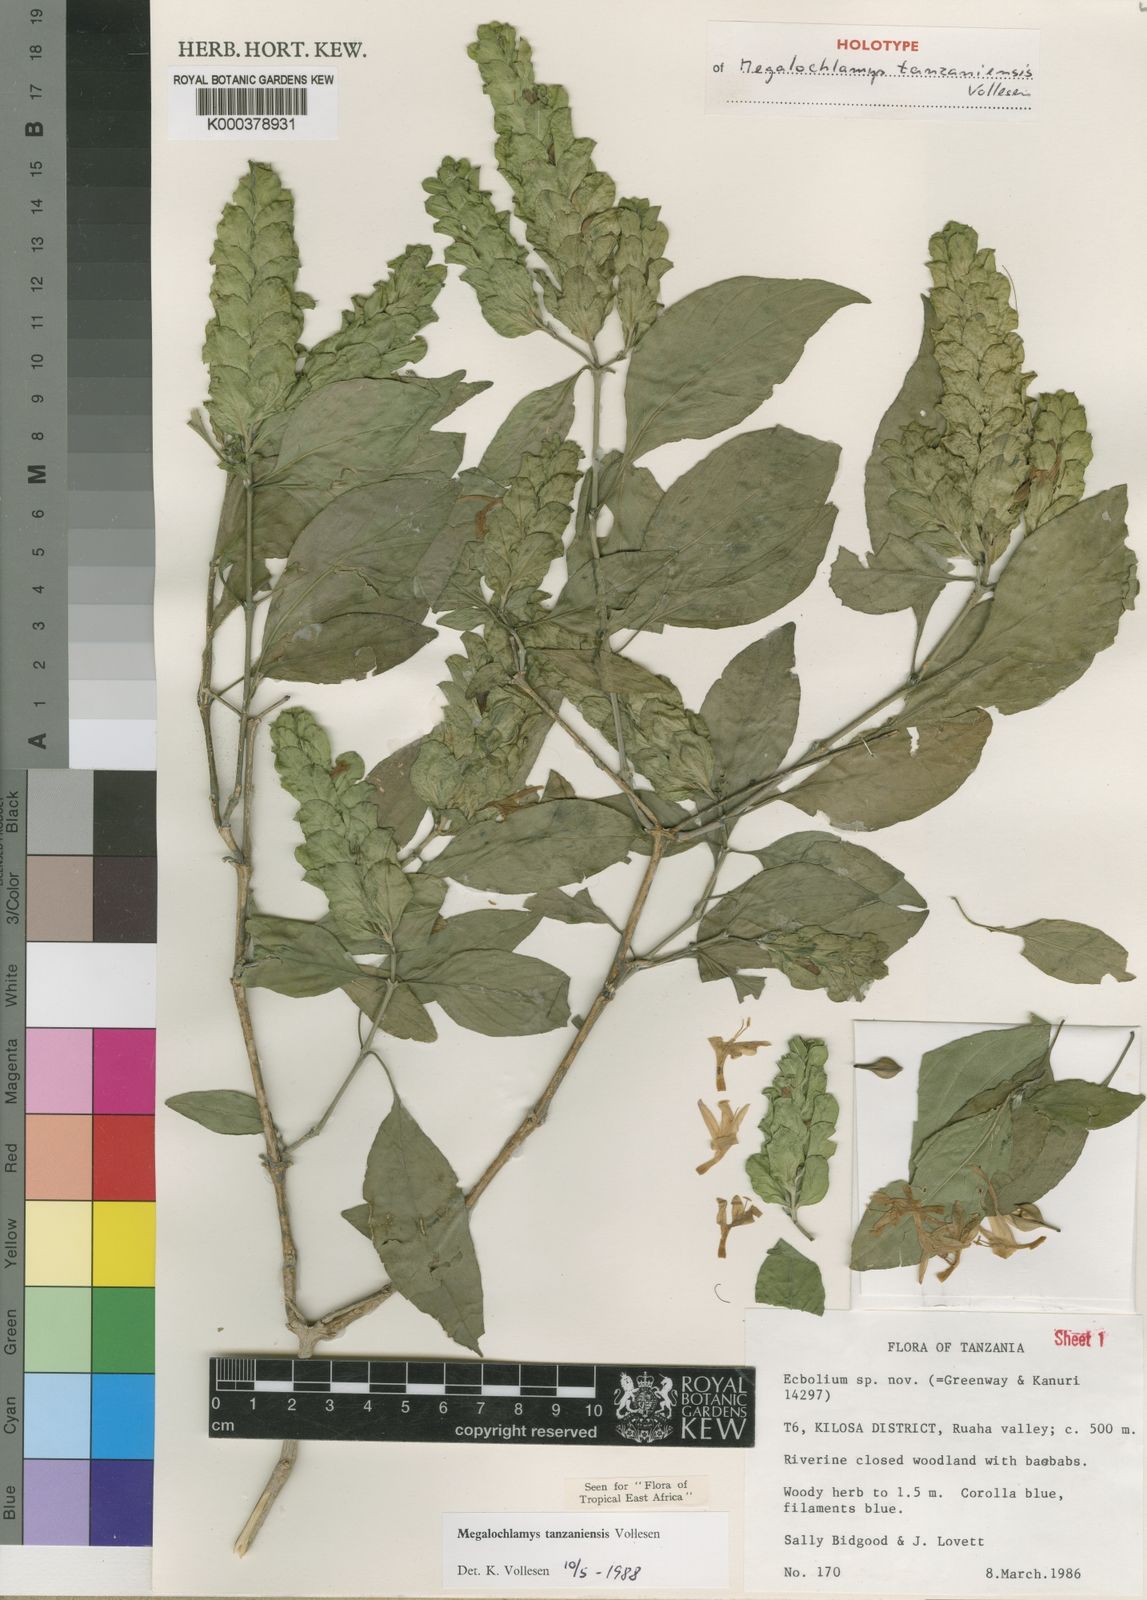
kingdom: Plantae
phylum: Tracheophyta
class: Magnoliopsida
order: Lamiales
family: Acanthaceae
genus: Megalochlamys
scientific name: Megalochlamys tanzaniensis
